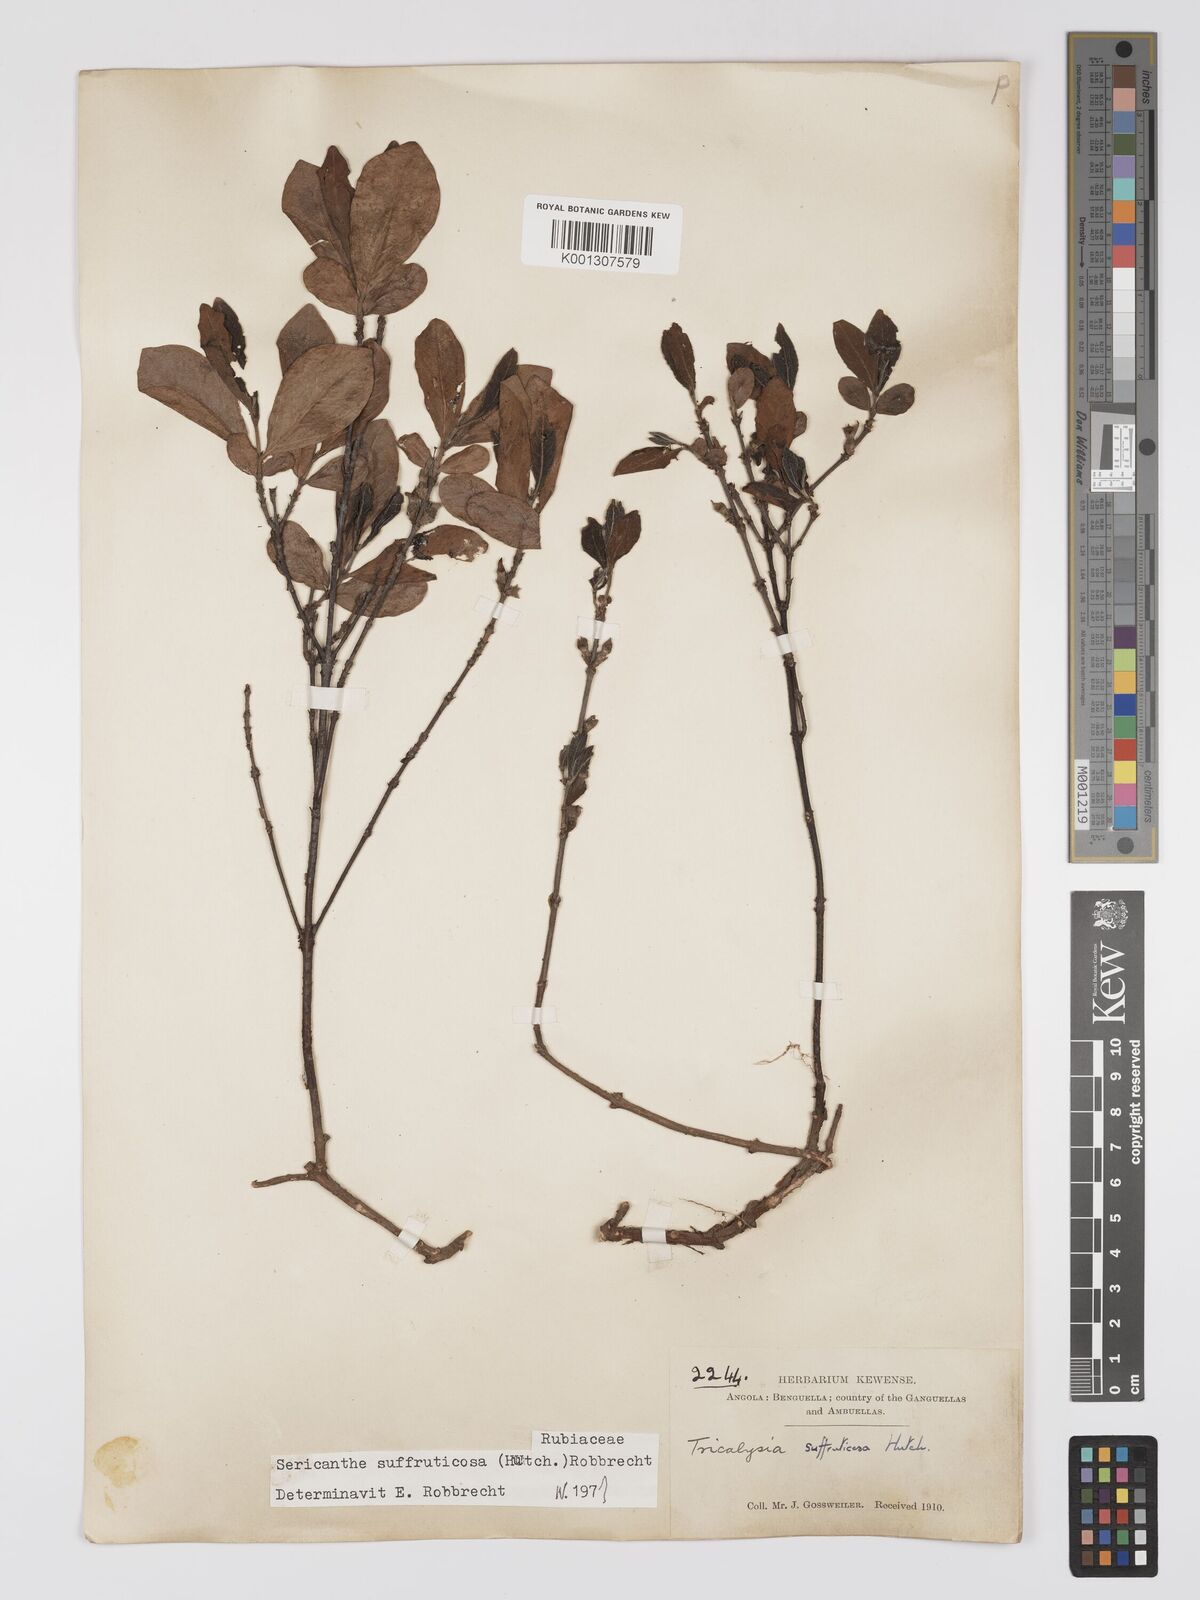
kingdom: Plantae
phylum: Tracheophyta
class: Magnoliopsida
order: Gentianales
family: Rubiaceae
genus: Sericanthe
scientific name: Sericanthe suffruticosa
